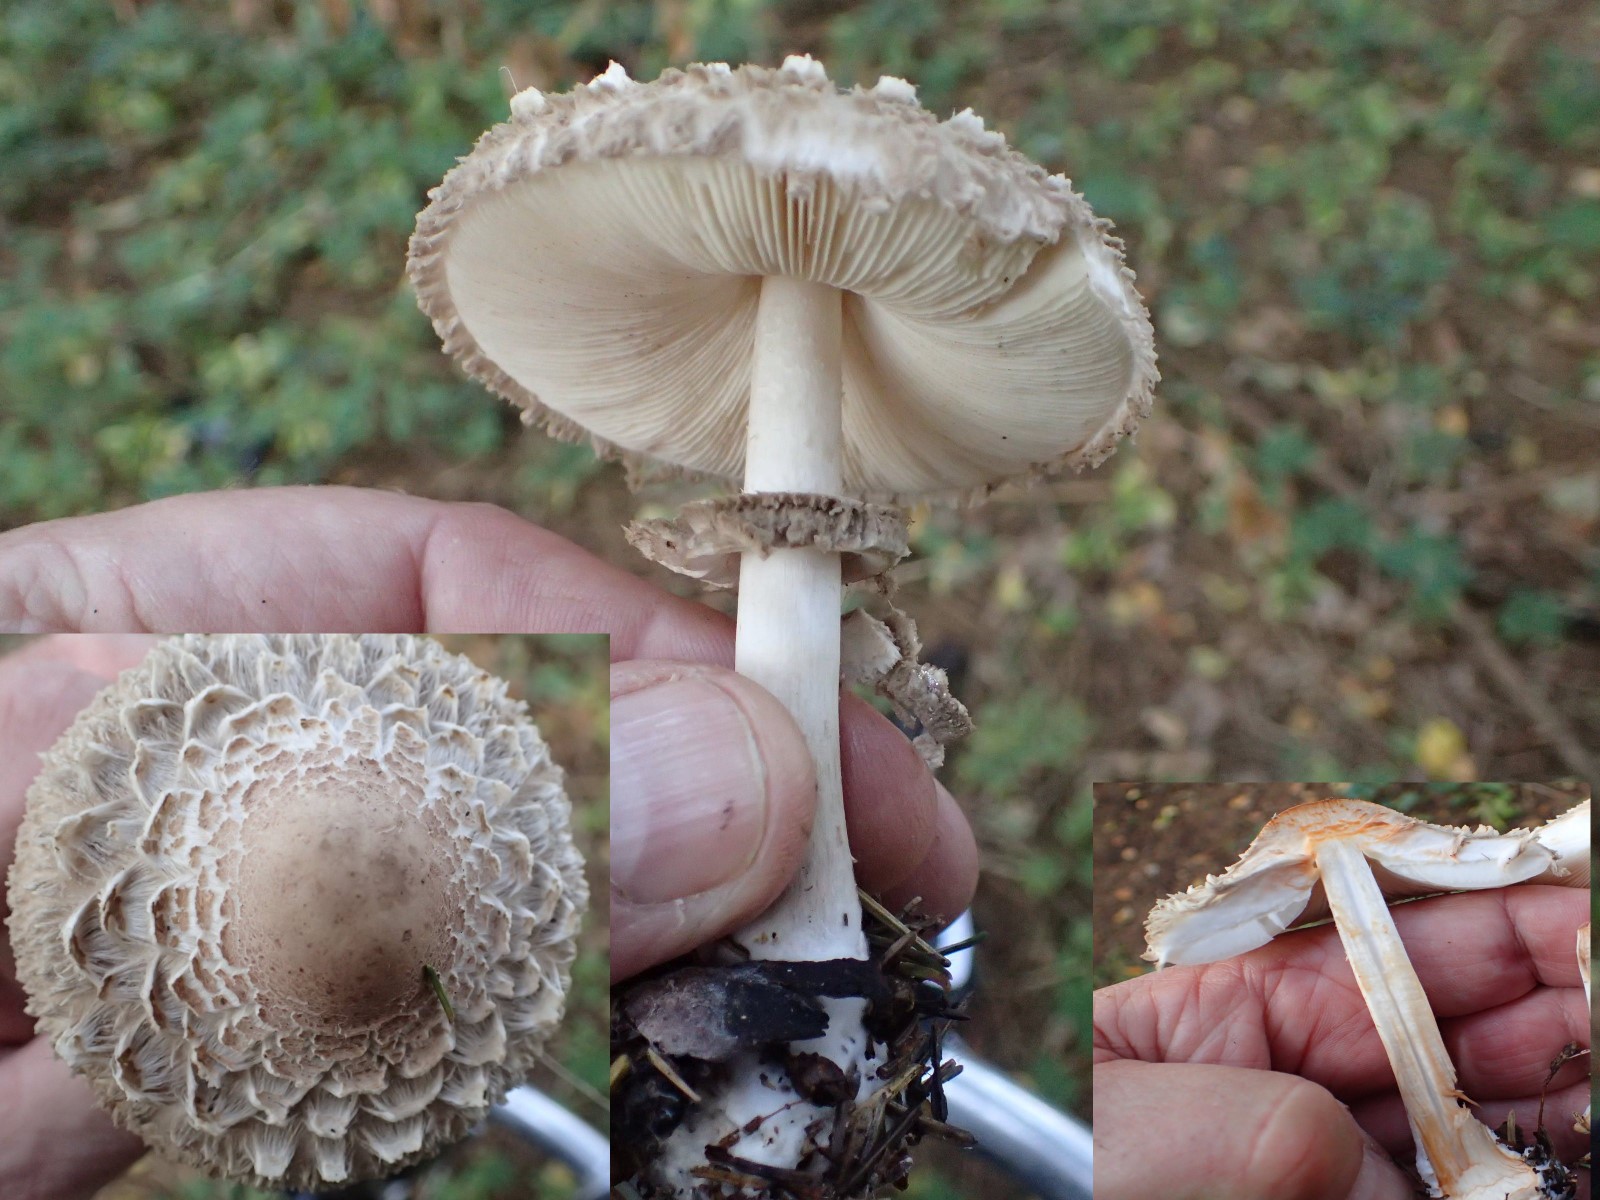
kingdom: Fungi
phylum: Basidiomycota
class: Agaricomycetes
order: Agaricales
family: Agaricaceae
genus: Chlorophyllum
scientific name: Chlorophyllum olivieri
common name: almindelig rabarberhat
